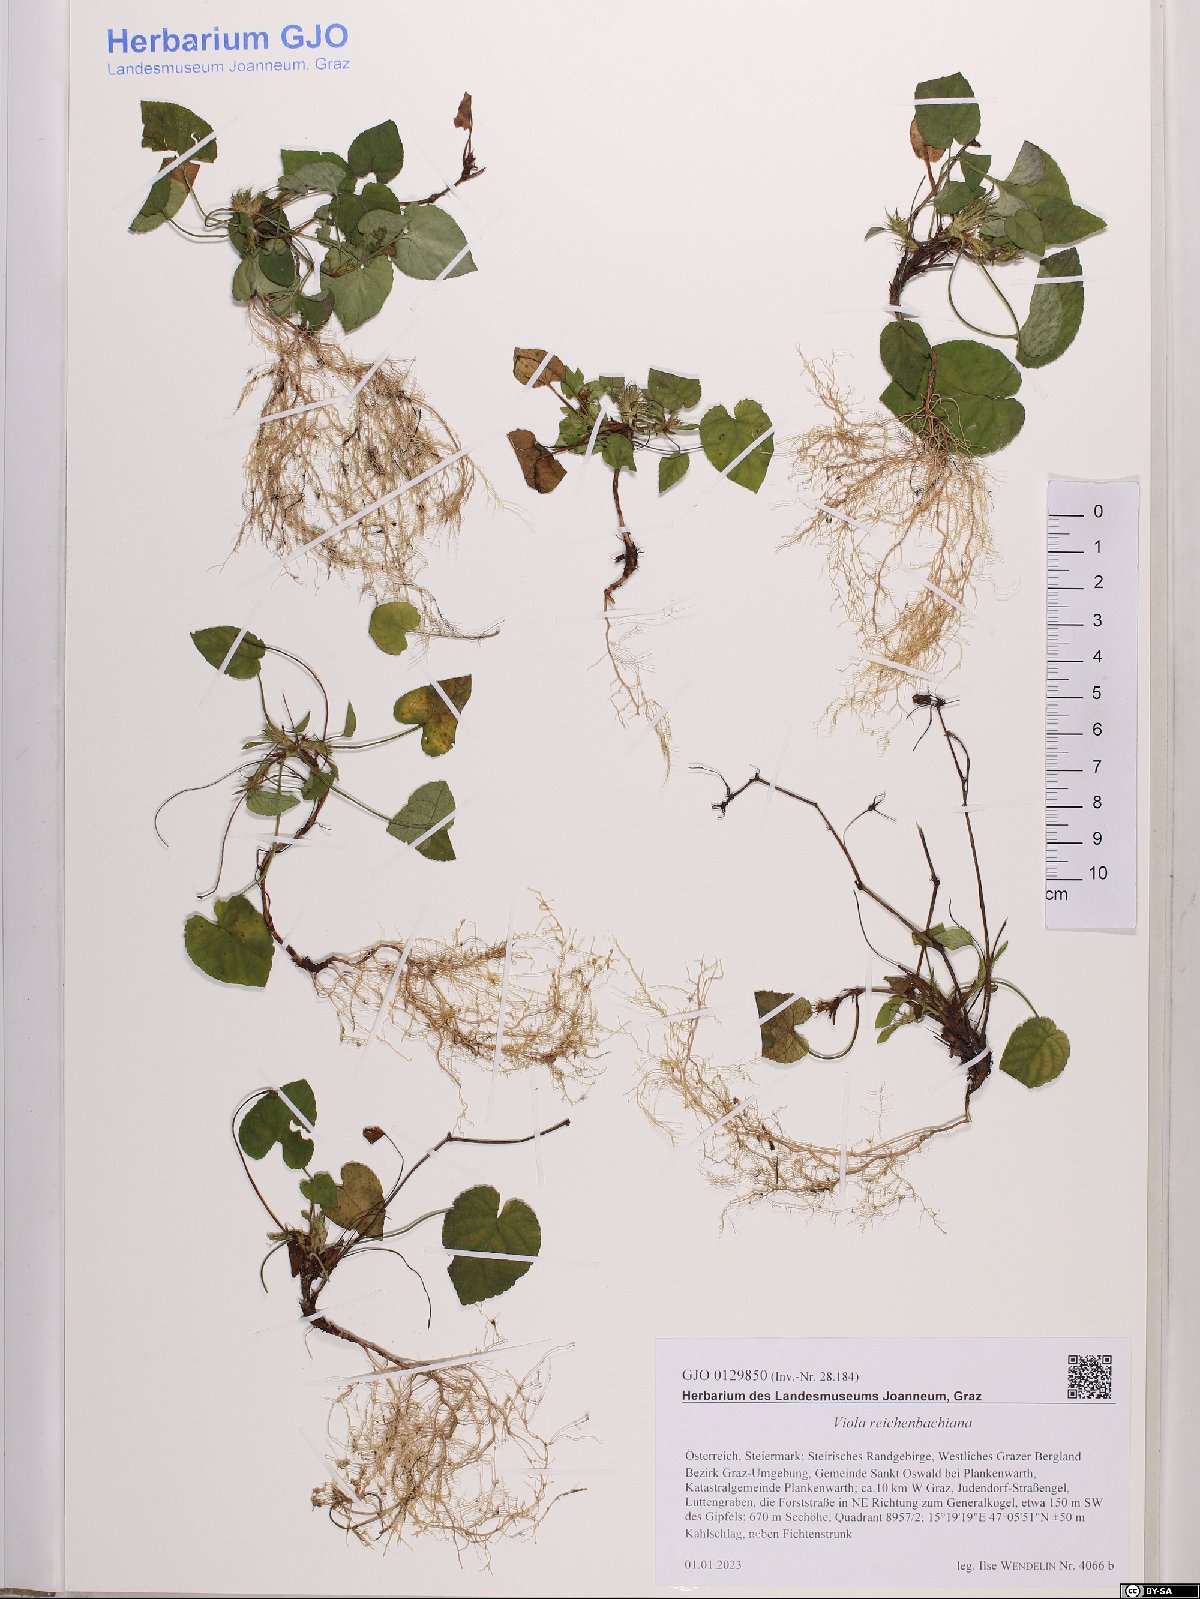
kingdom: Plantae
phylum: Tracheophyta
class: Magnoliopsida
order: Malpighiales
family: Violaceae
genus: Viola
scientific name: Viola reichenbachiana
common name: Early dog-violet
